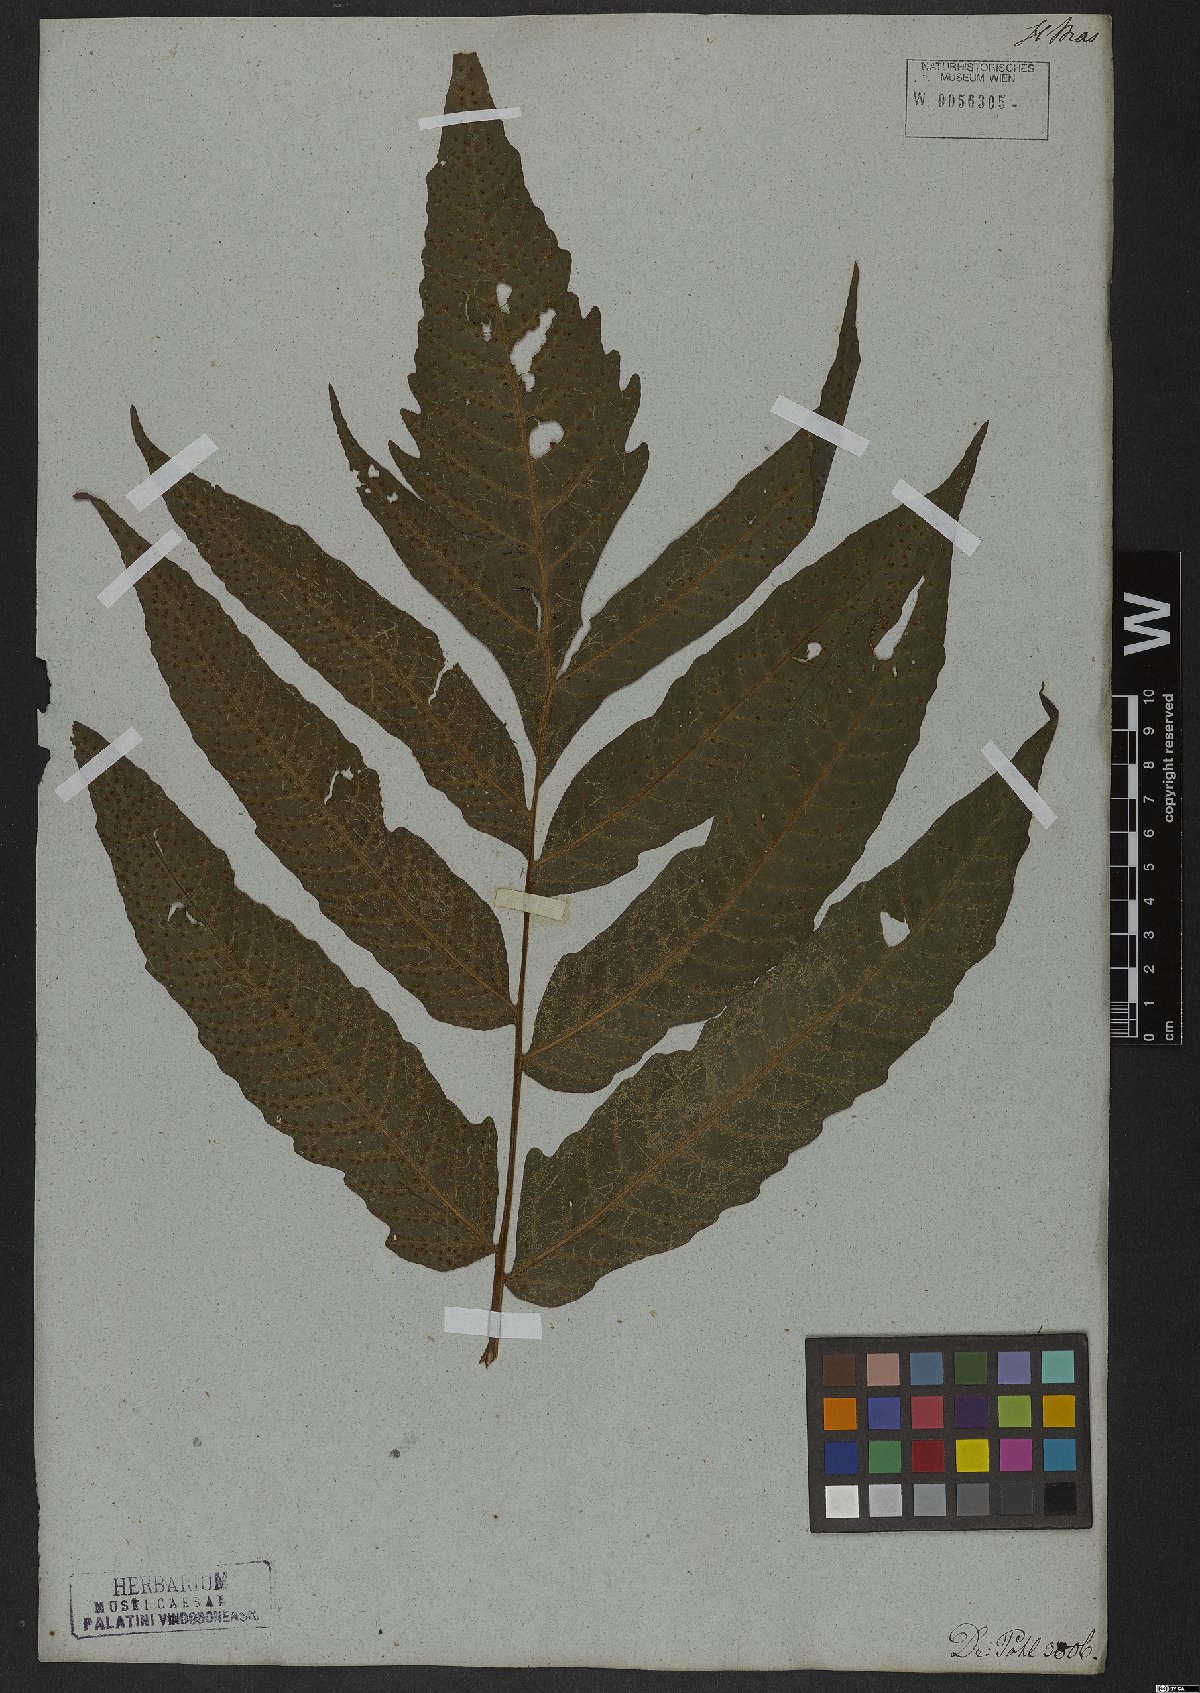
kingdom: Plantae
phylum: Tracheophyta
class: Polypodiopsida
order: Polypodiales
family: Tectariaceae
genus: Tectaria
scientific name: Tectaria incisa
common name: Incised halberd fern
